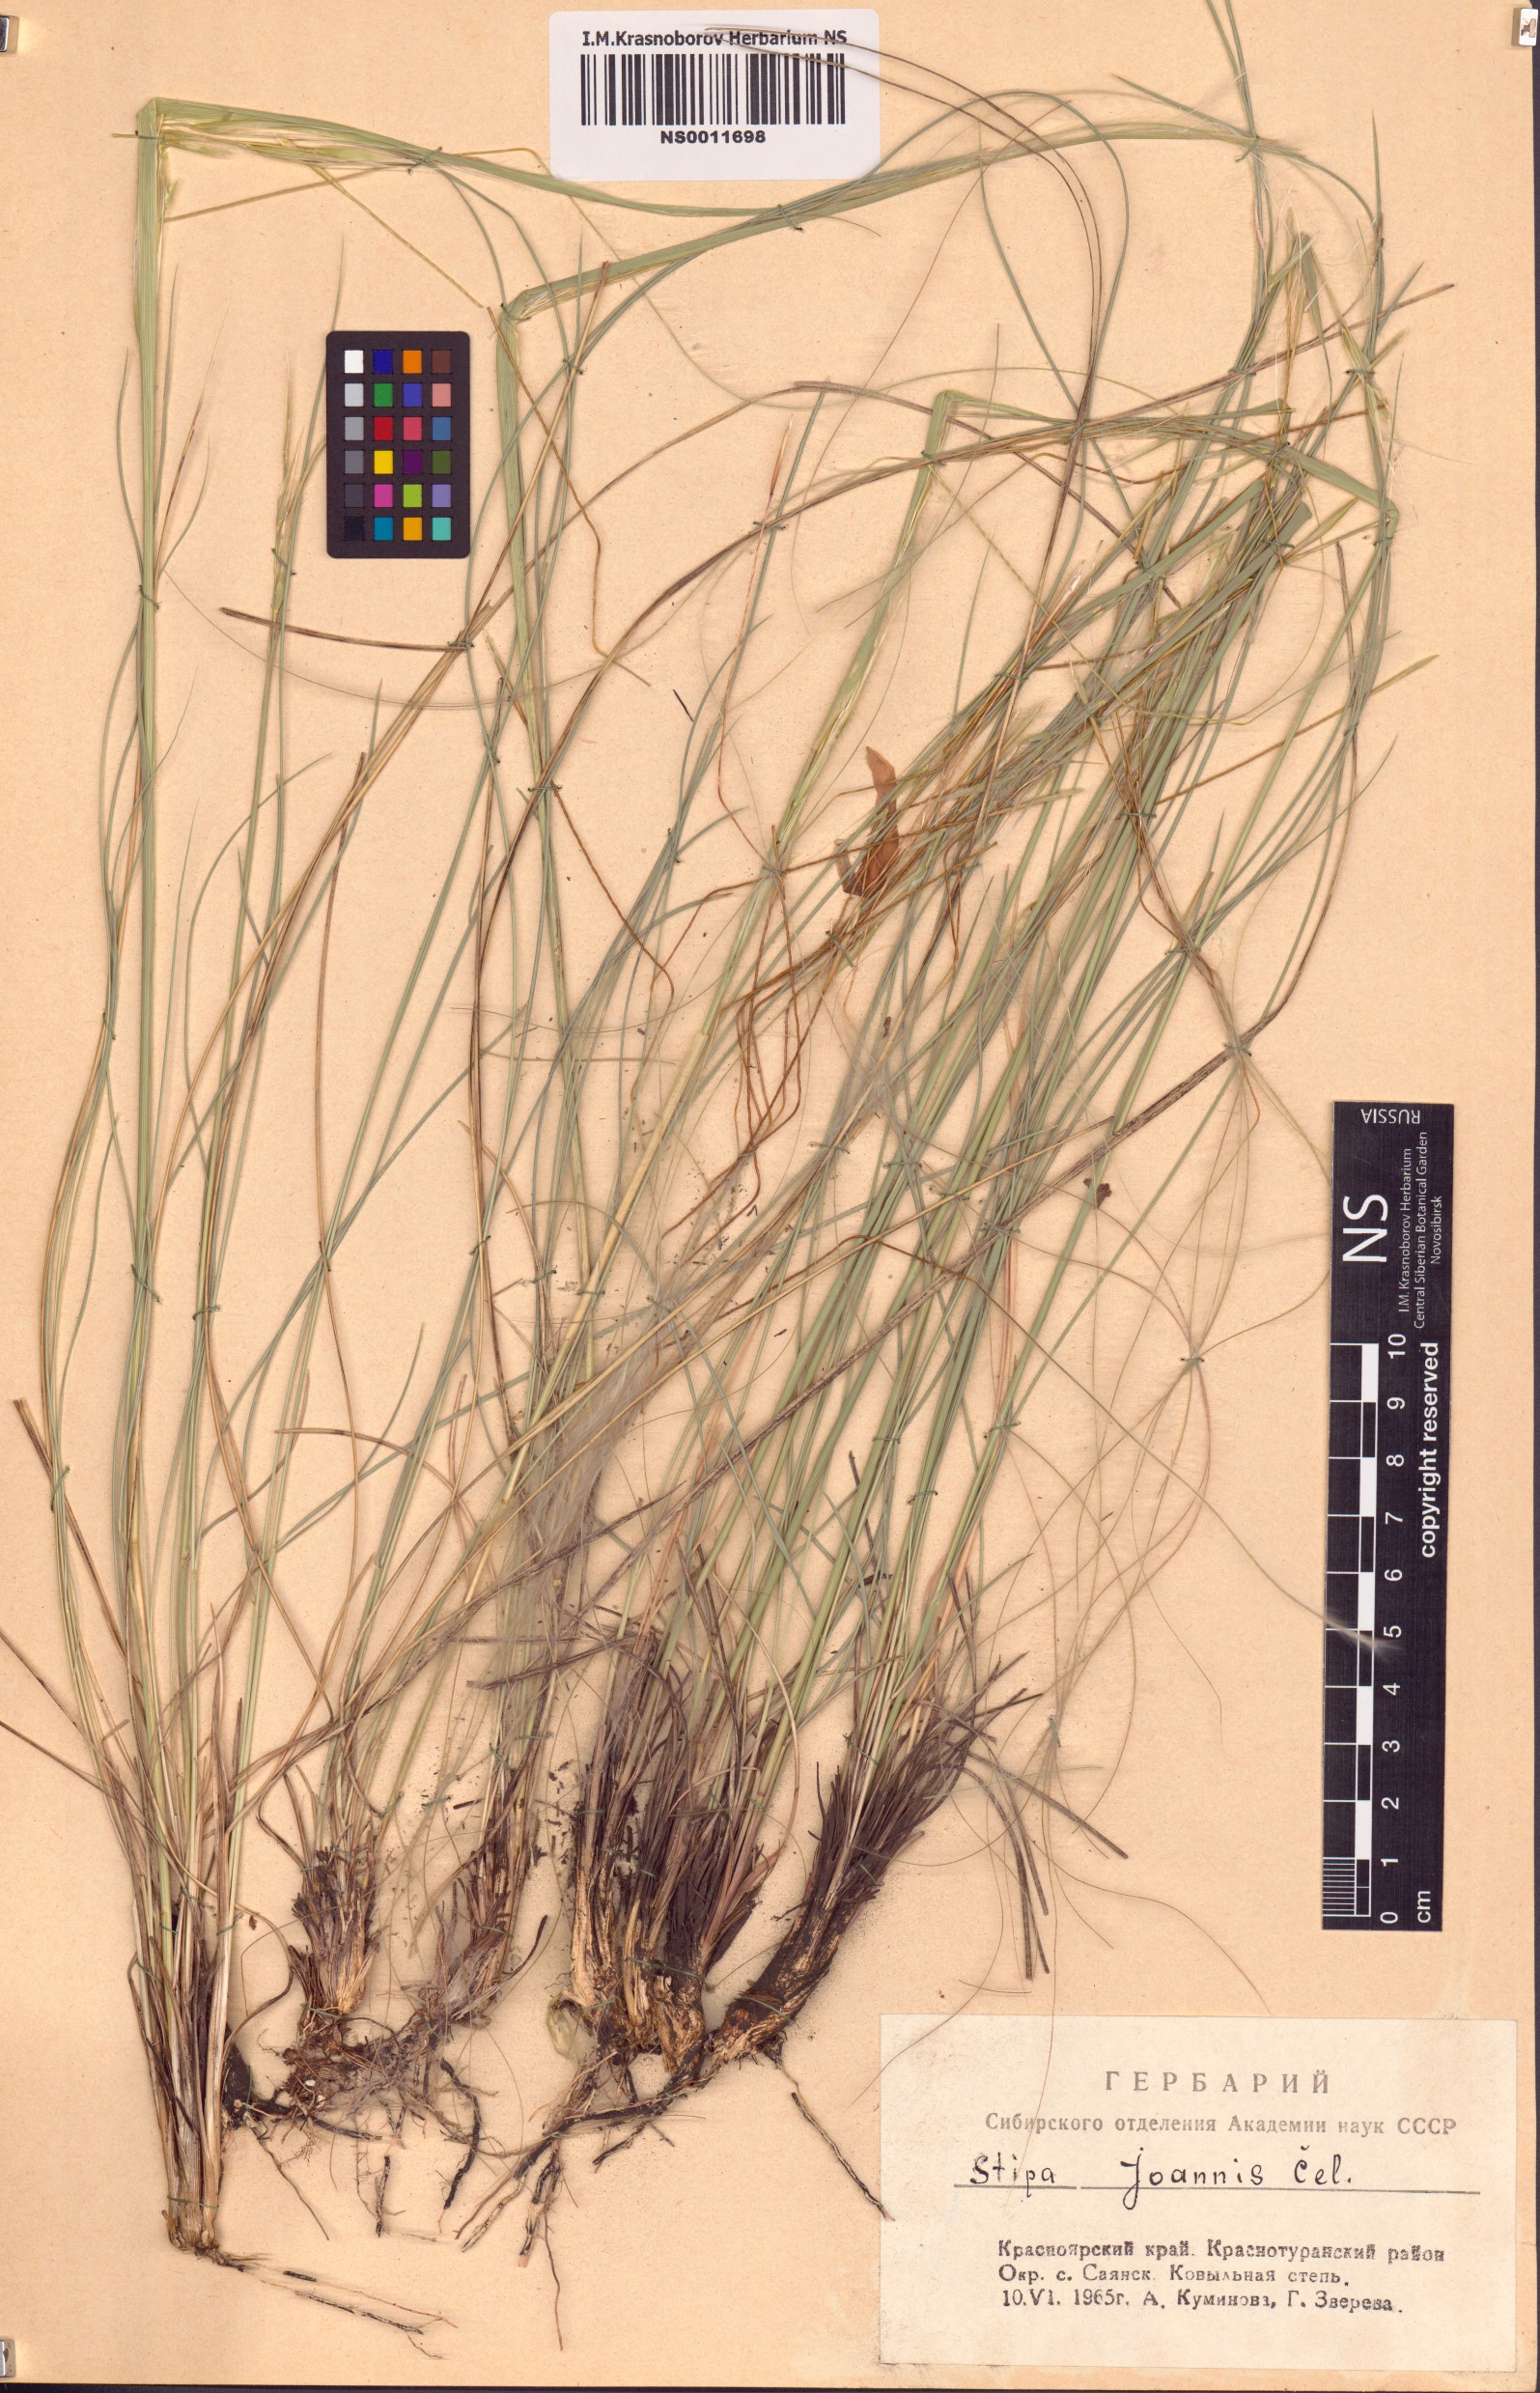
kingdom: Plantae
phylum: Tracheophyta
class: Liliopsida
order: Poales
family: Poaceae
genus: Stipa
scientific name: Stipa pennata
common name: European feather grass
